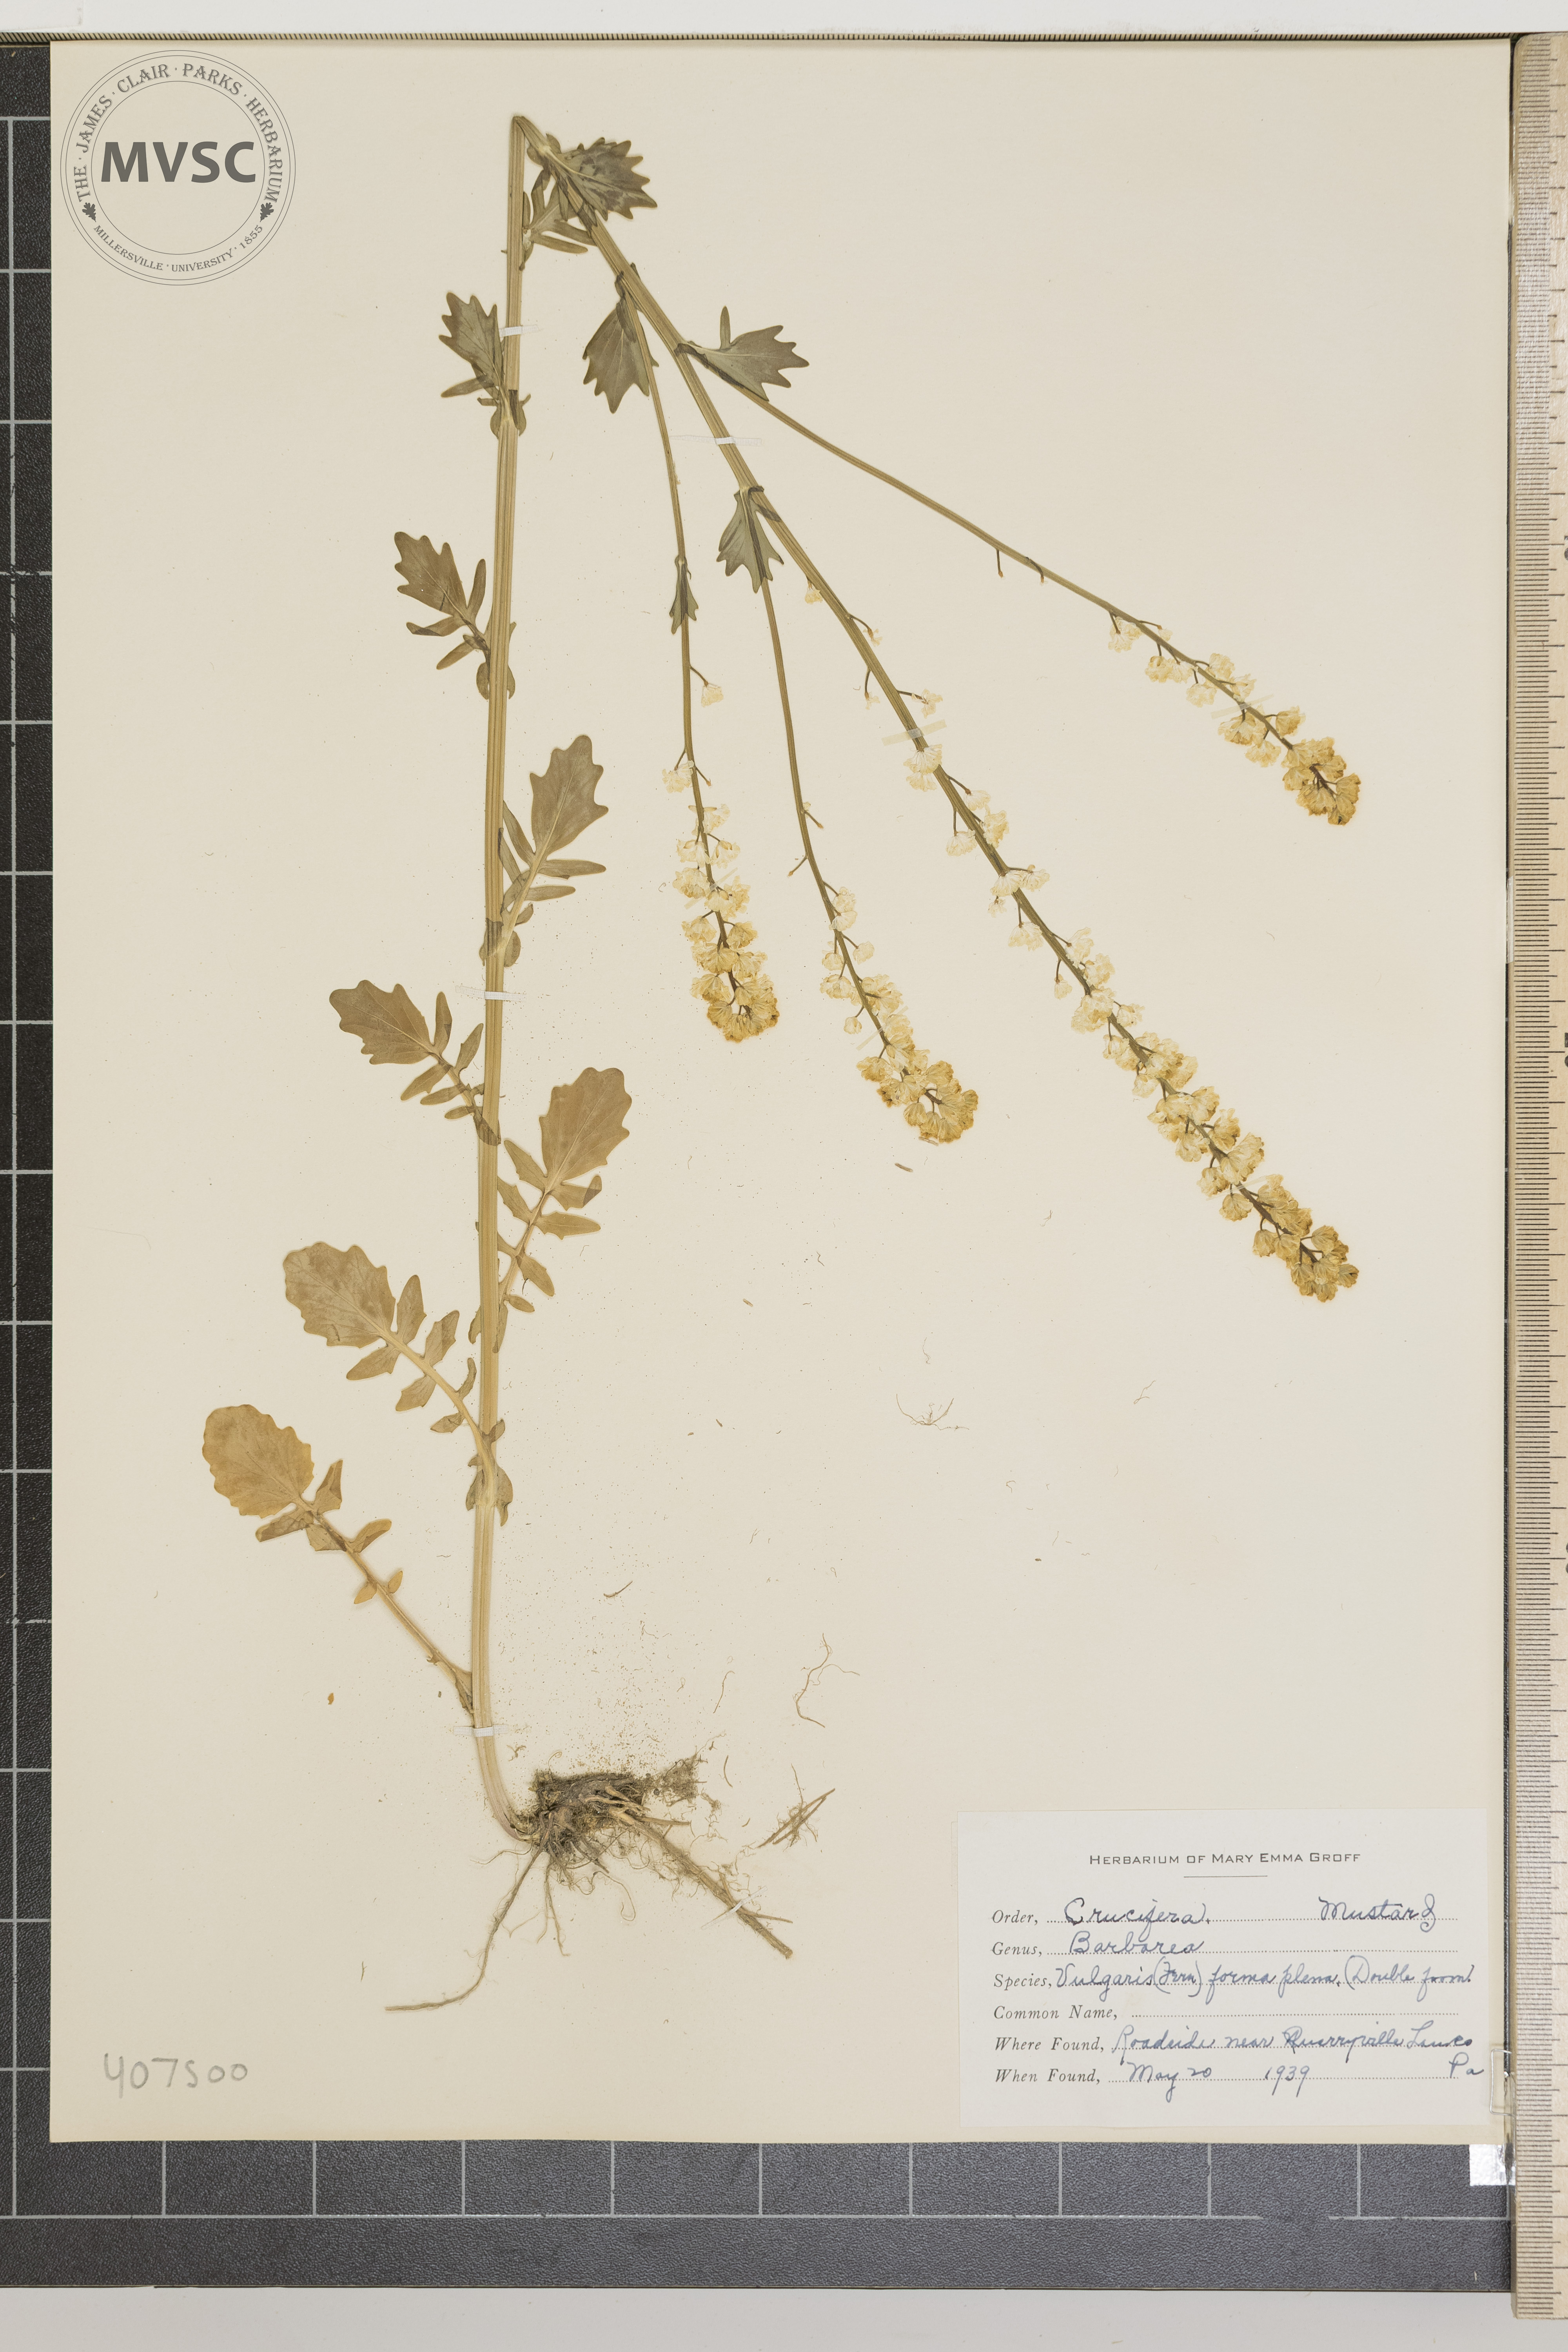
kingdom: Plantae
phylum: Tracheophyta
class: Magnoliopsida
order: Brassicales
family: Brassicaceae
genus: Barbarea
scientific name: Barbarea vulgaris
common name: Cressy-greens
